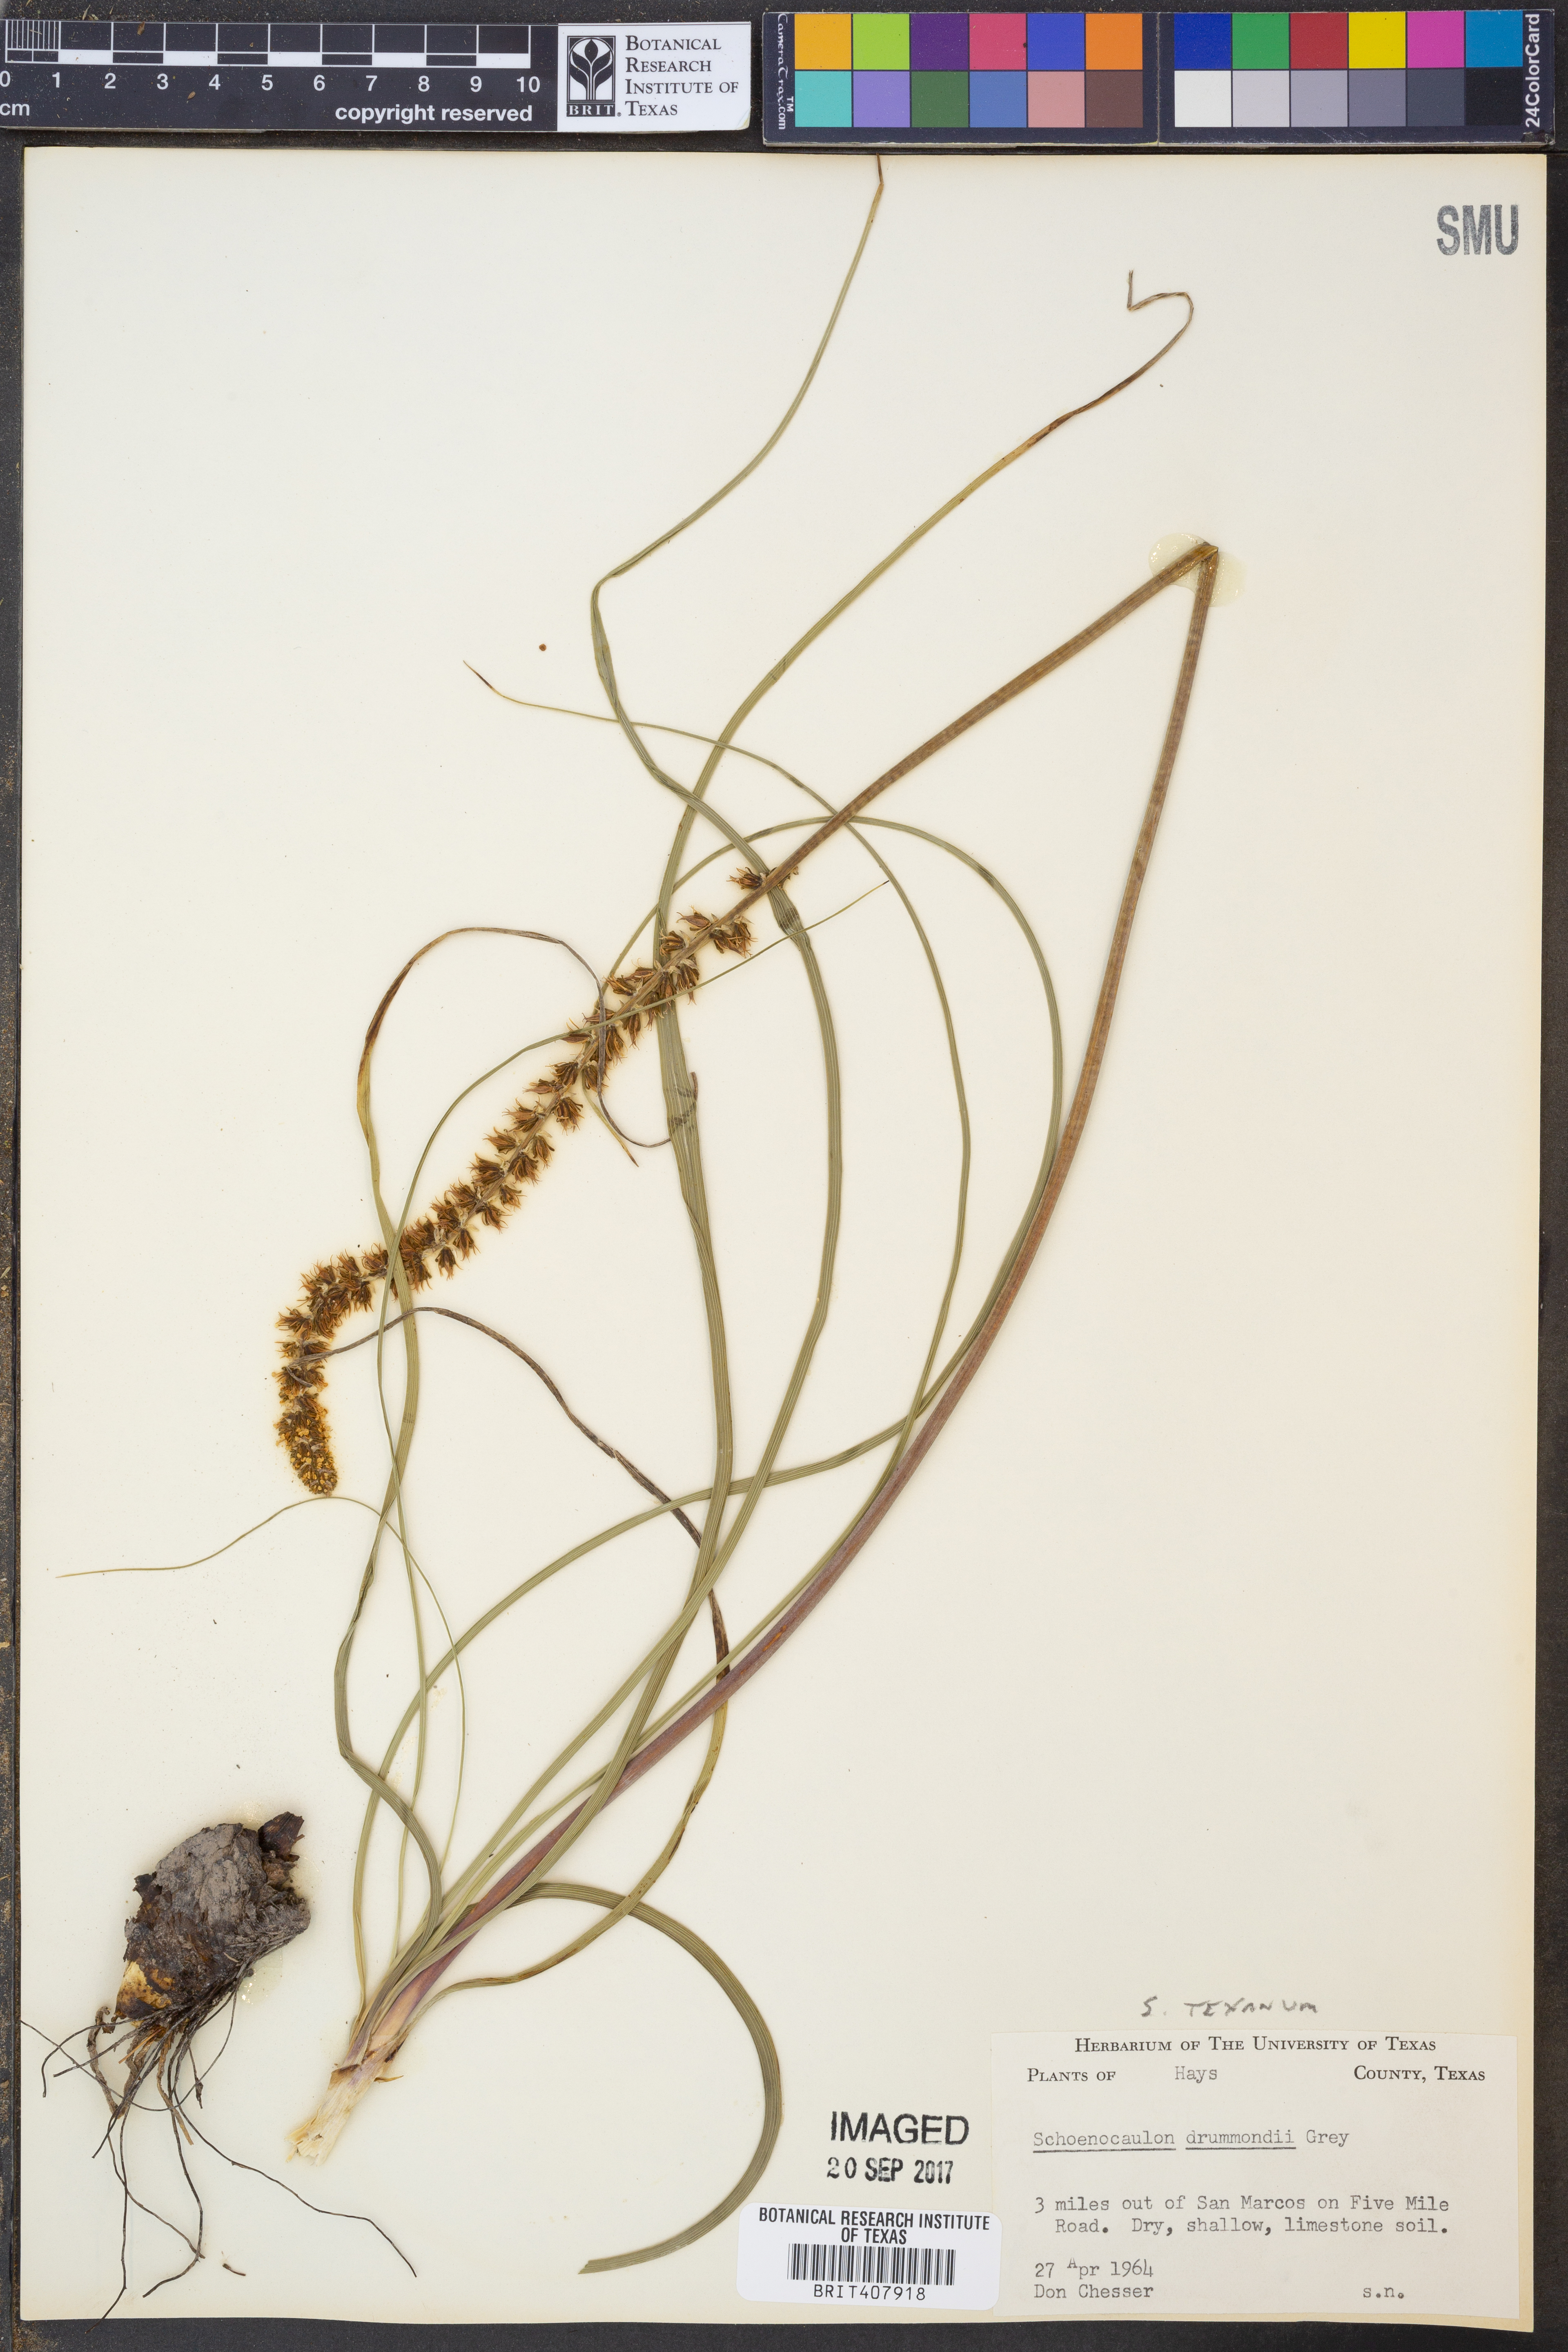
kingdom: Plantae
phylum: Tracheophyta
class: Liliopsida
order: Liliales
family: Melanthiaceae
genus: Schoenocaulon
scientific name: Schoenocaulon ghiesbreghtii
